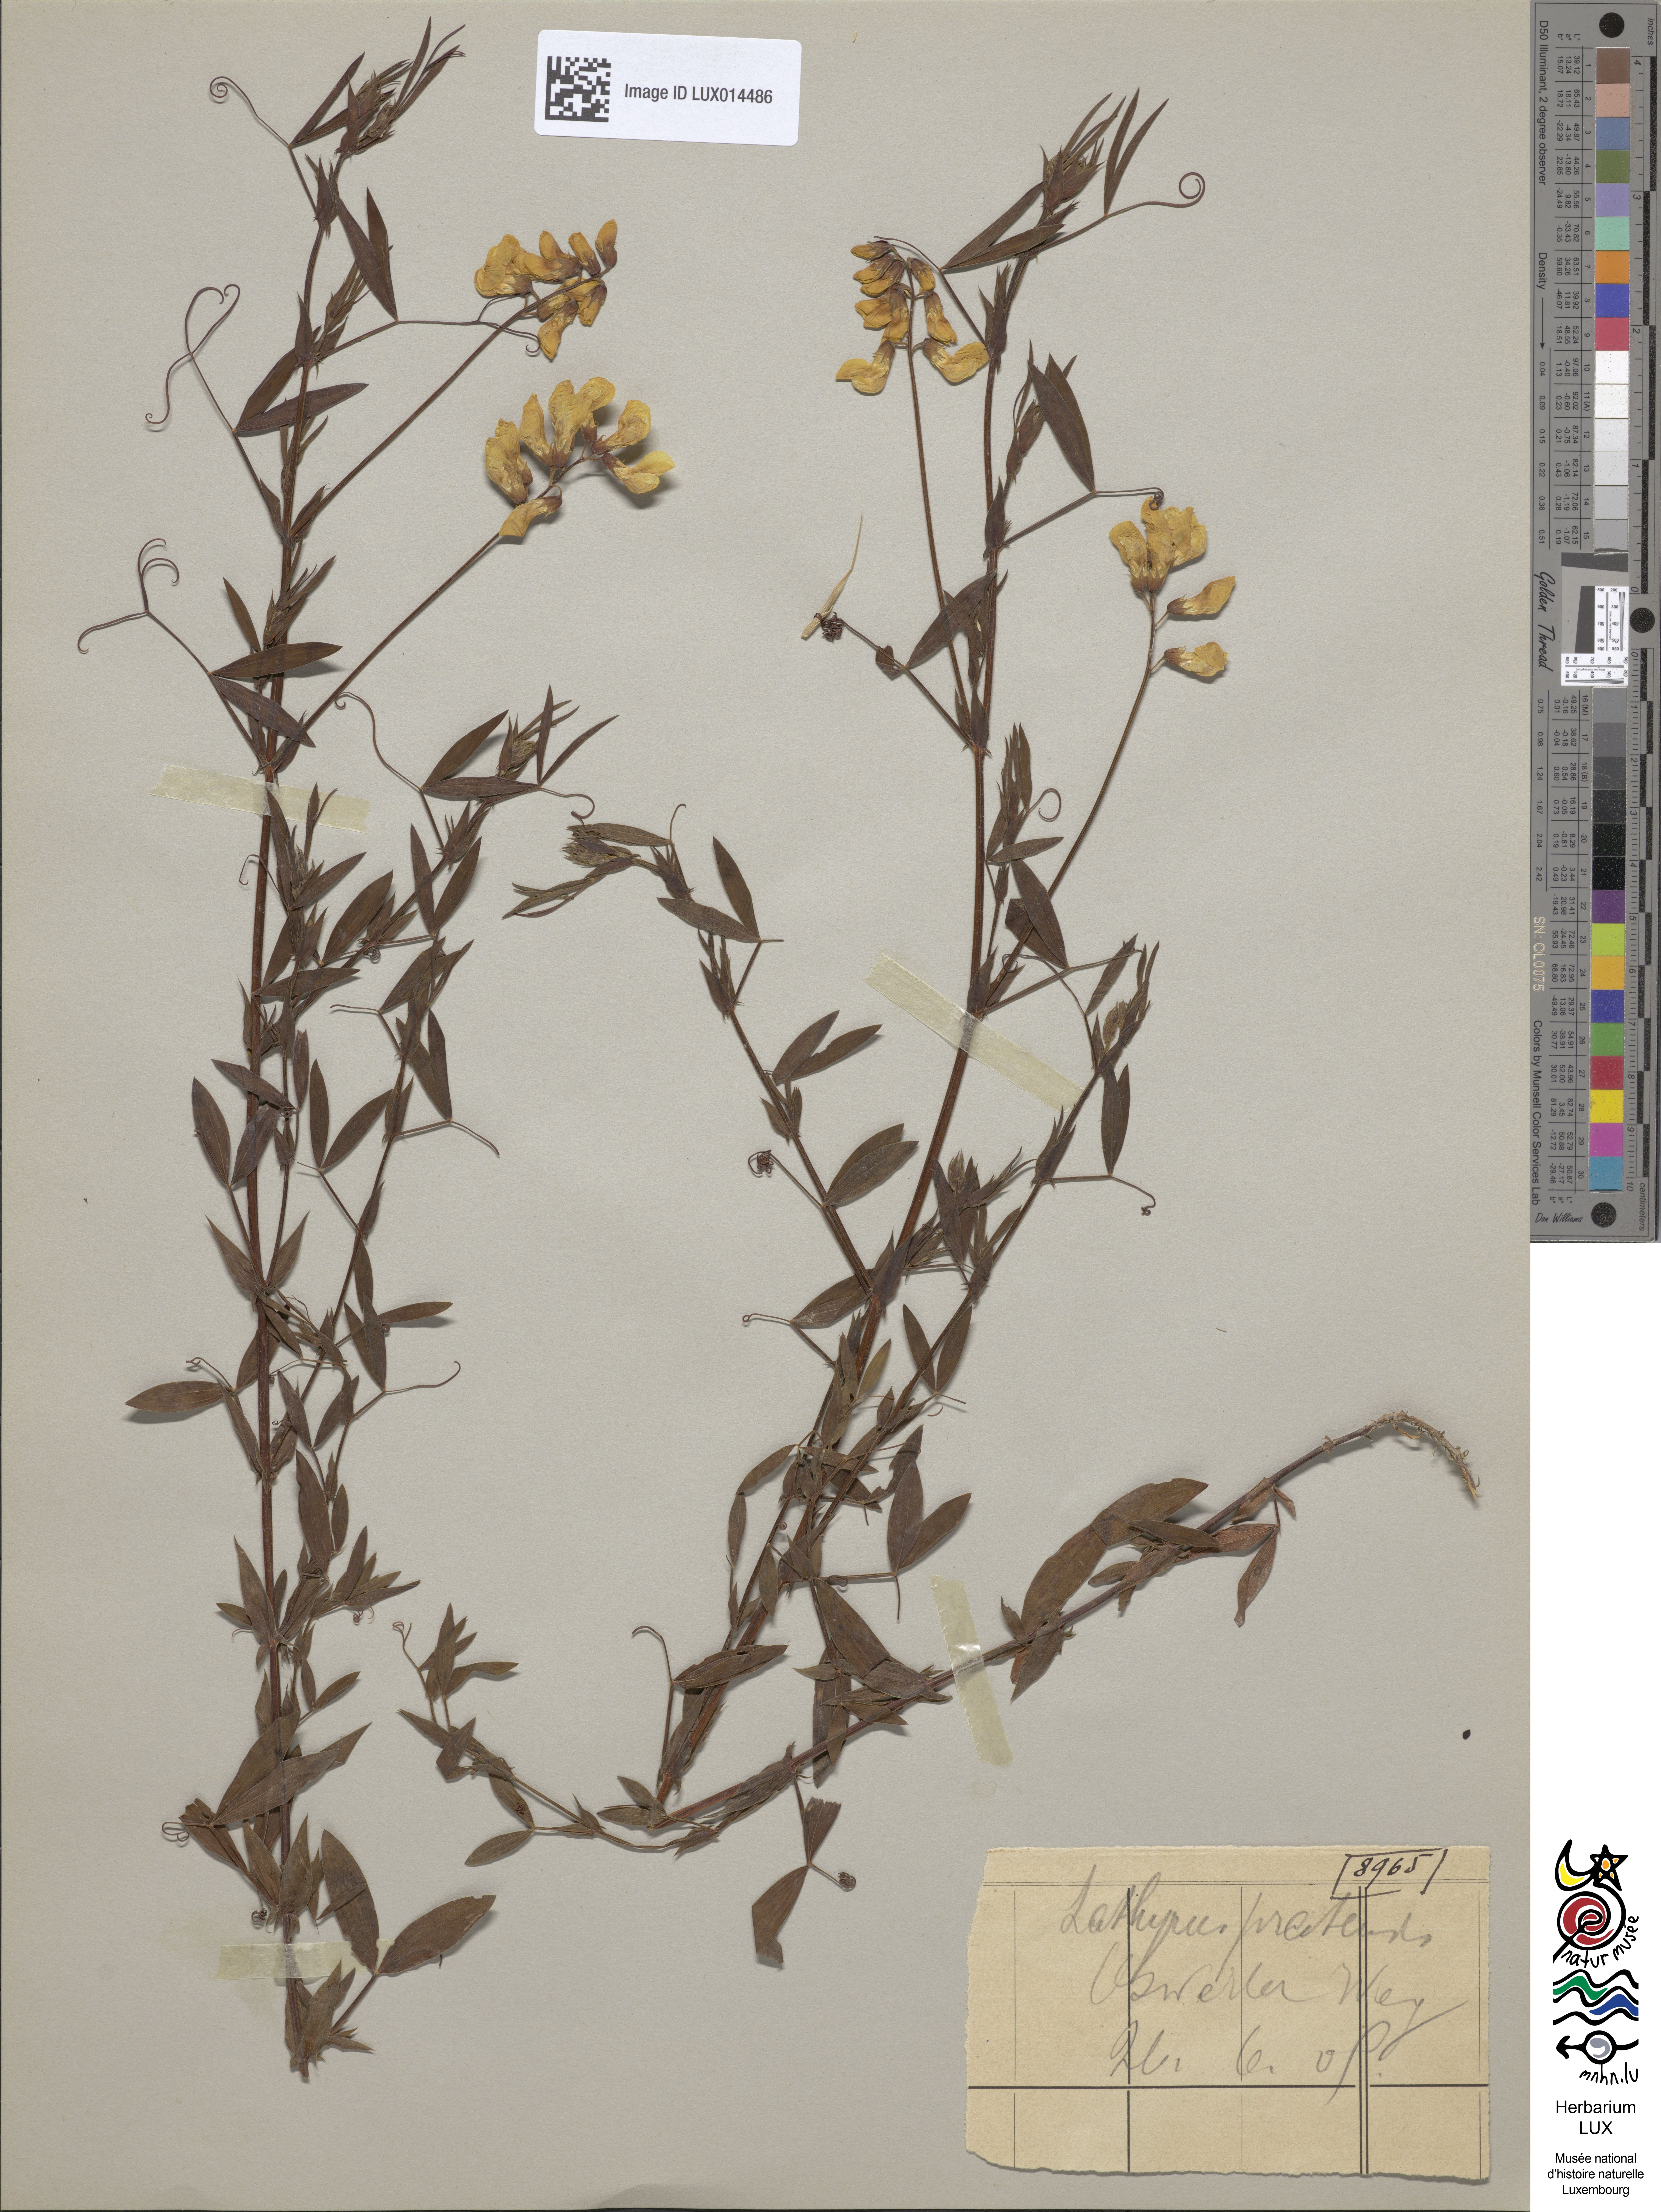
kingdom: Plantae
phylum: Tracheophyta
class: Magnoliopsida
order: Fabales
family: Fabaceae
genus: Lathyrus
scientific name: Lathyrus pratensis
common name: Meadow vetchling
